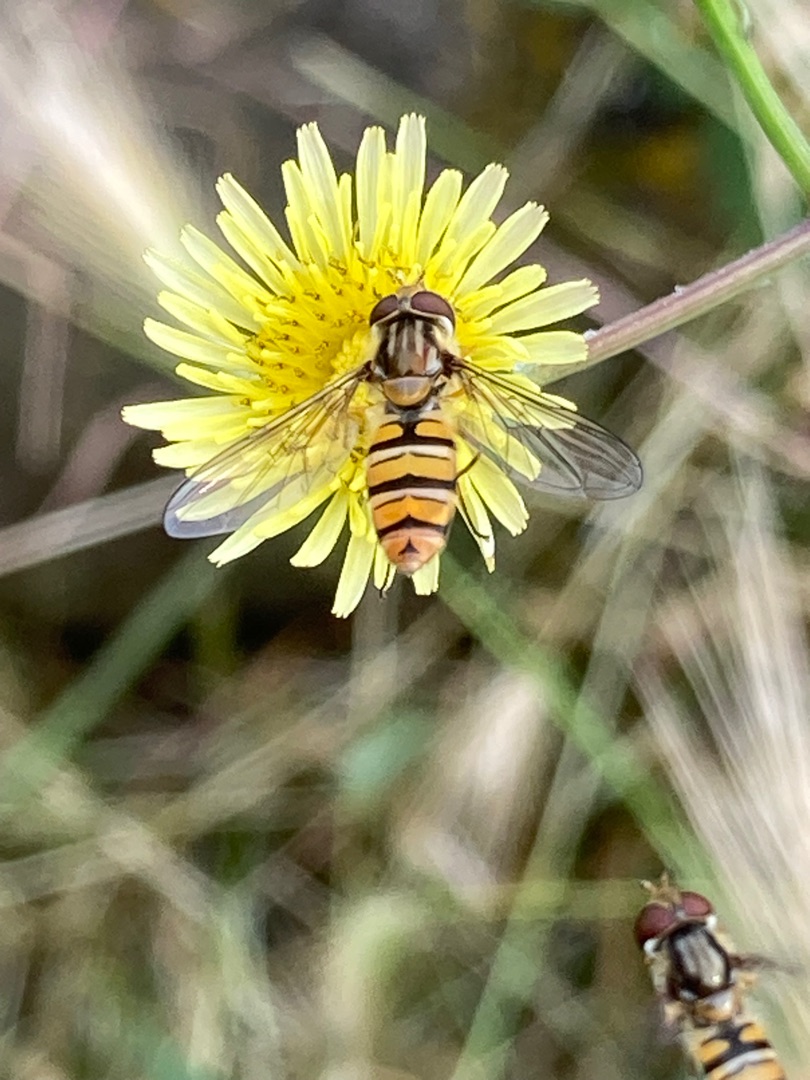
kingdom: Animalia
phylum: Arthropoda
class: Insecta
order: Diptera
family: Syrphidae
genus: Episyrphus
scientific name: Episyrphus balteatus
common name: Dobbeltbåndet svirreflue
